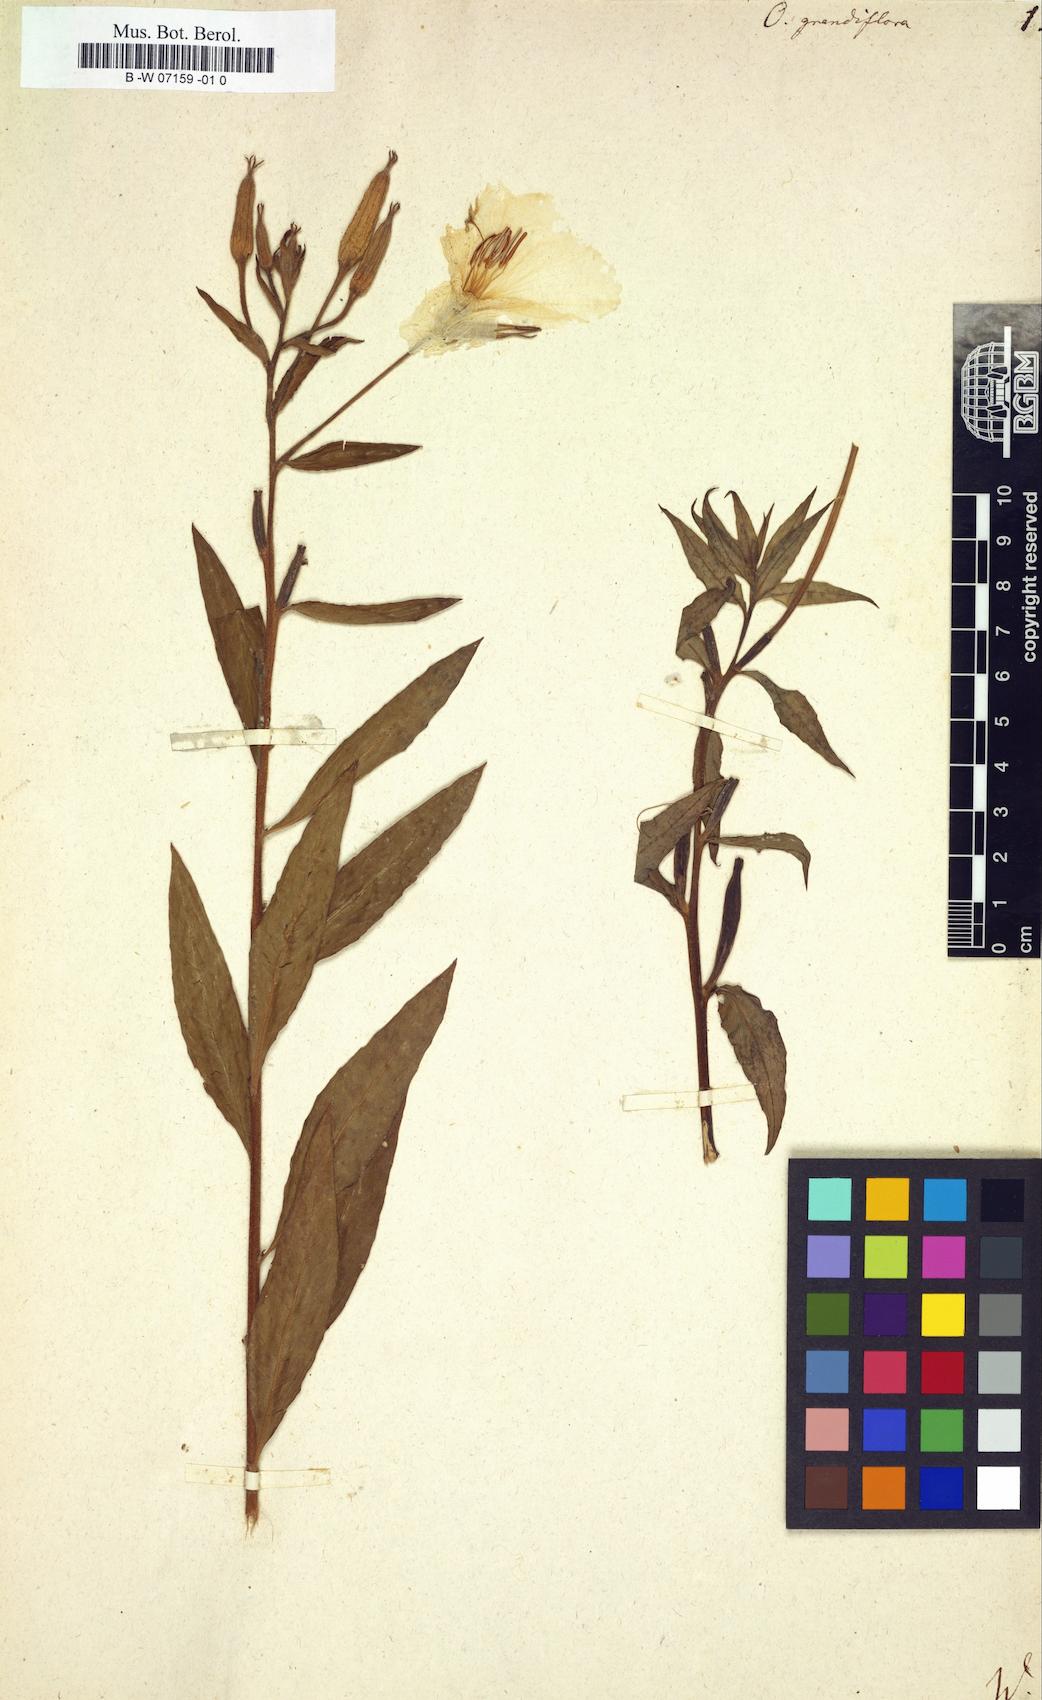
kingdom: Plantae
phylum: Tracheophyta
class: Magnoliopsida
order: Myrtales
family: Onagraceae
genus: Oenothera
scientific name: Oenothera grandiflora
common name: Large-flowered evening-primrose
